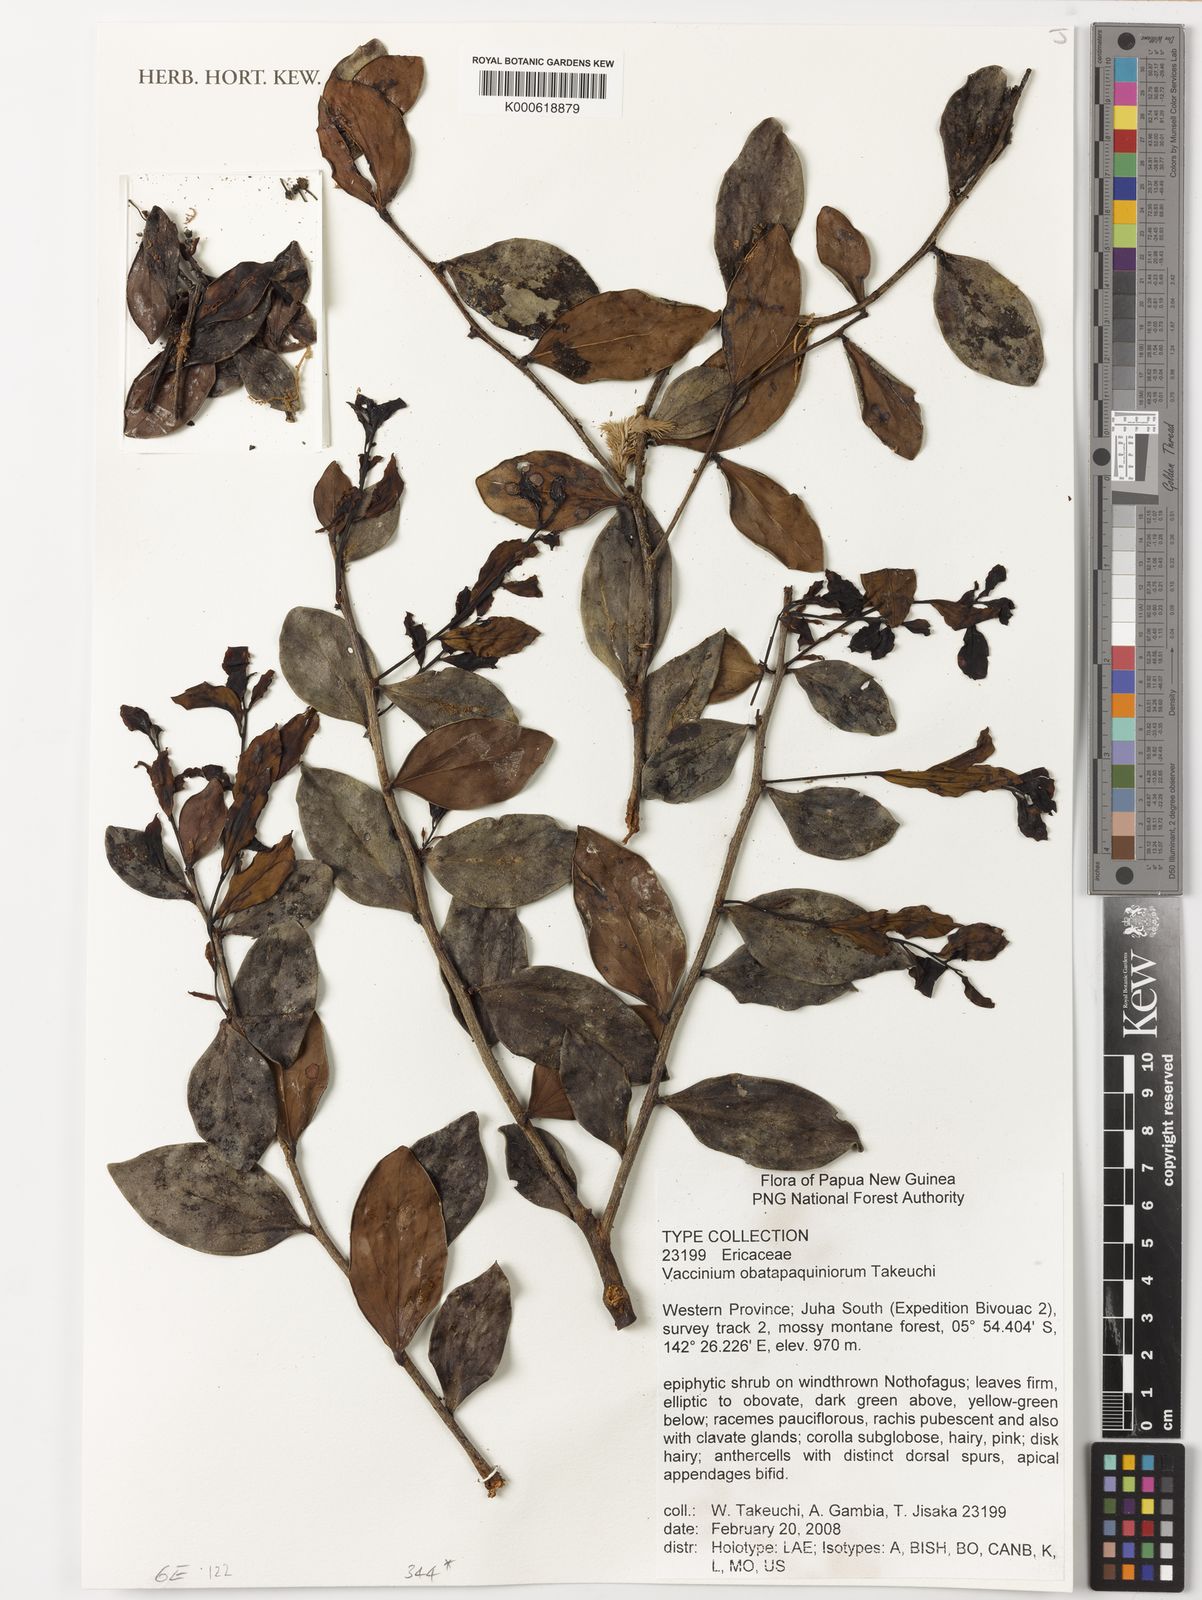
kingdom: Plantae
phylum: Tracheophyta
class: Magnoliopsida
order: Ericales
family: Ericaceae
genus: Vaccinium
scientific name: Vaccinium obatapaquiniorum
